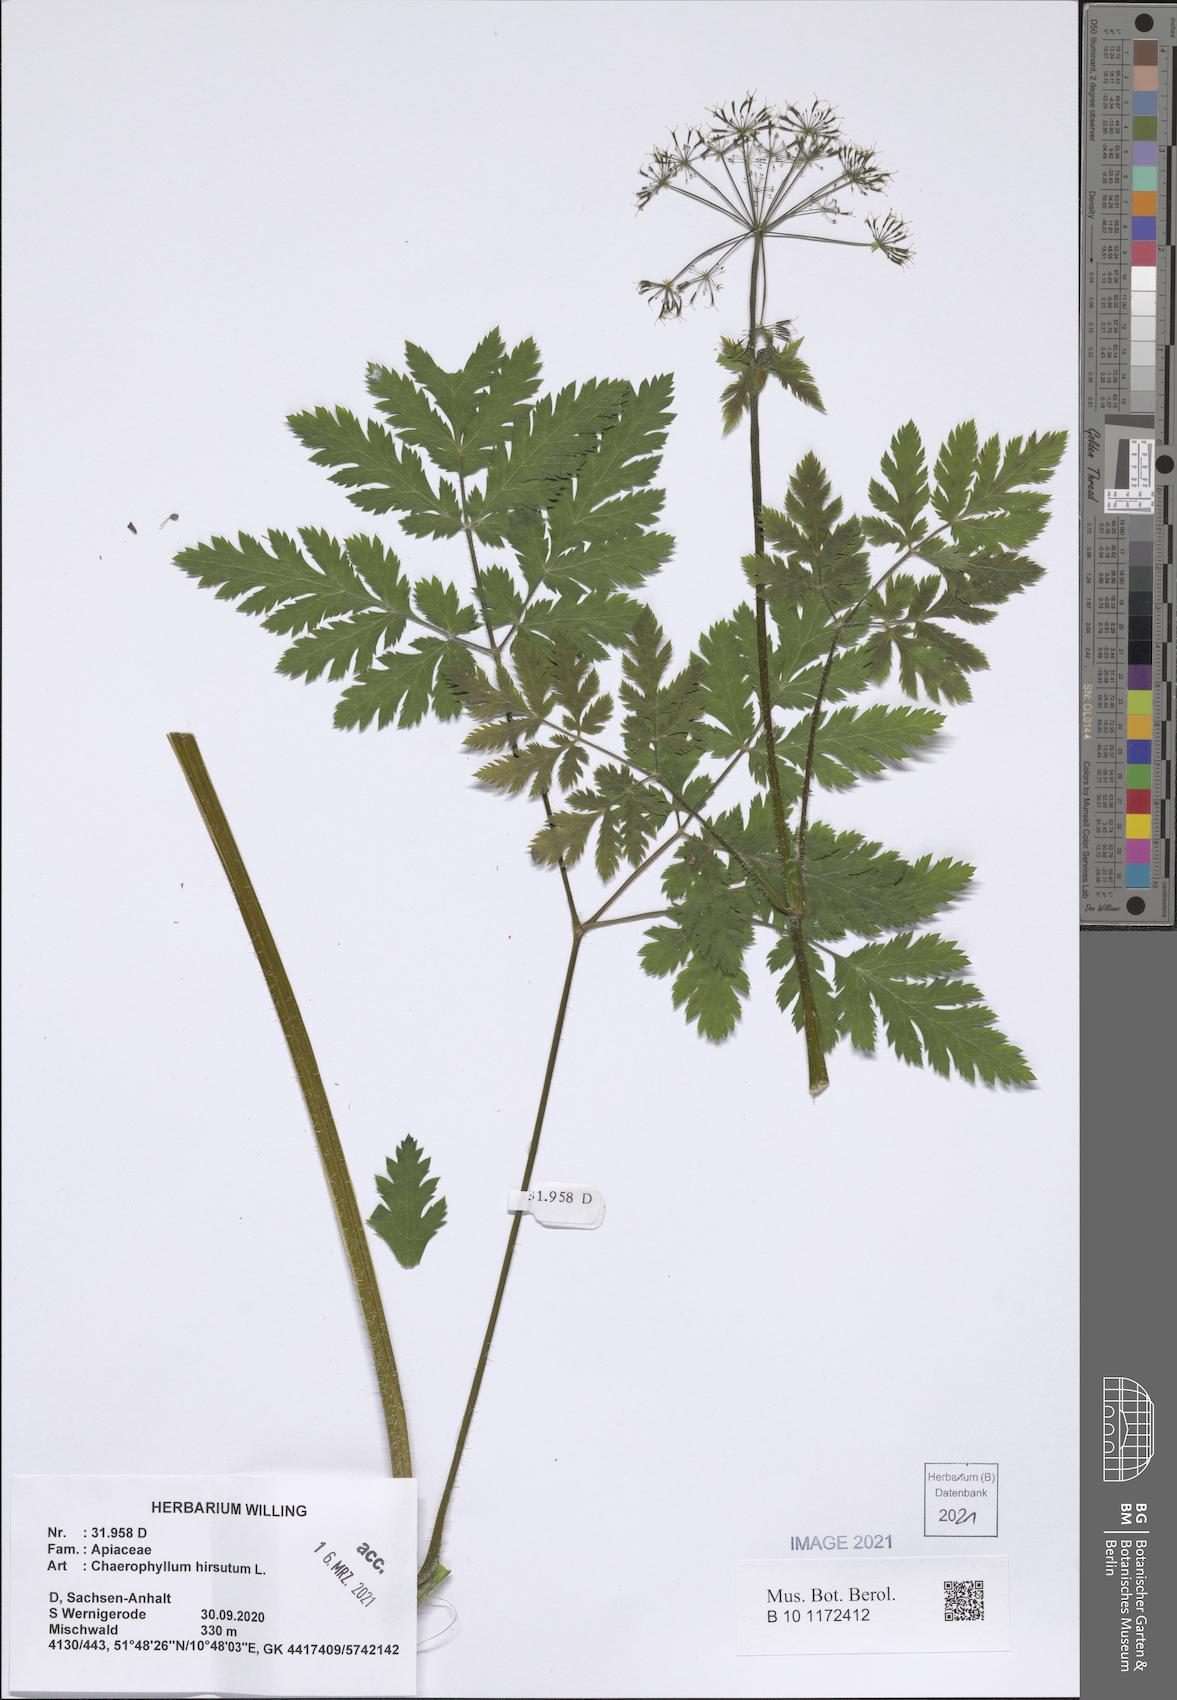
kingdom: Plantae
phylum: Tracheophyta
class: Magnoliopsida
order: Apiales
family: Apiaceae
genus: Chaerophyllum
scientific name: Chaerophyllum hirsutum
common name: Hairy chervil
